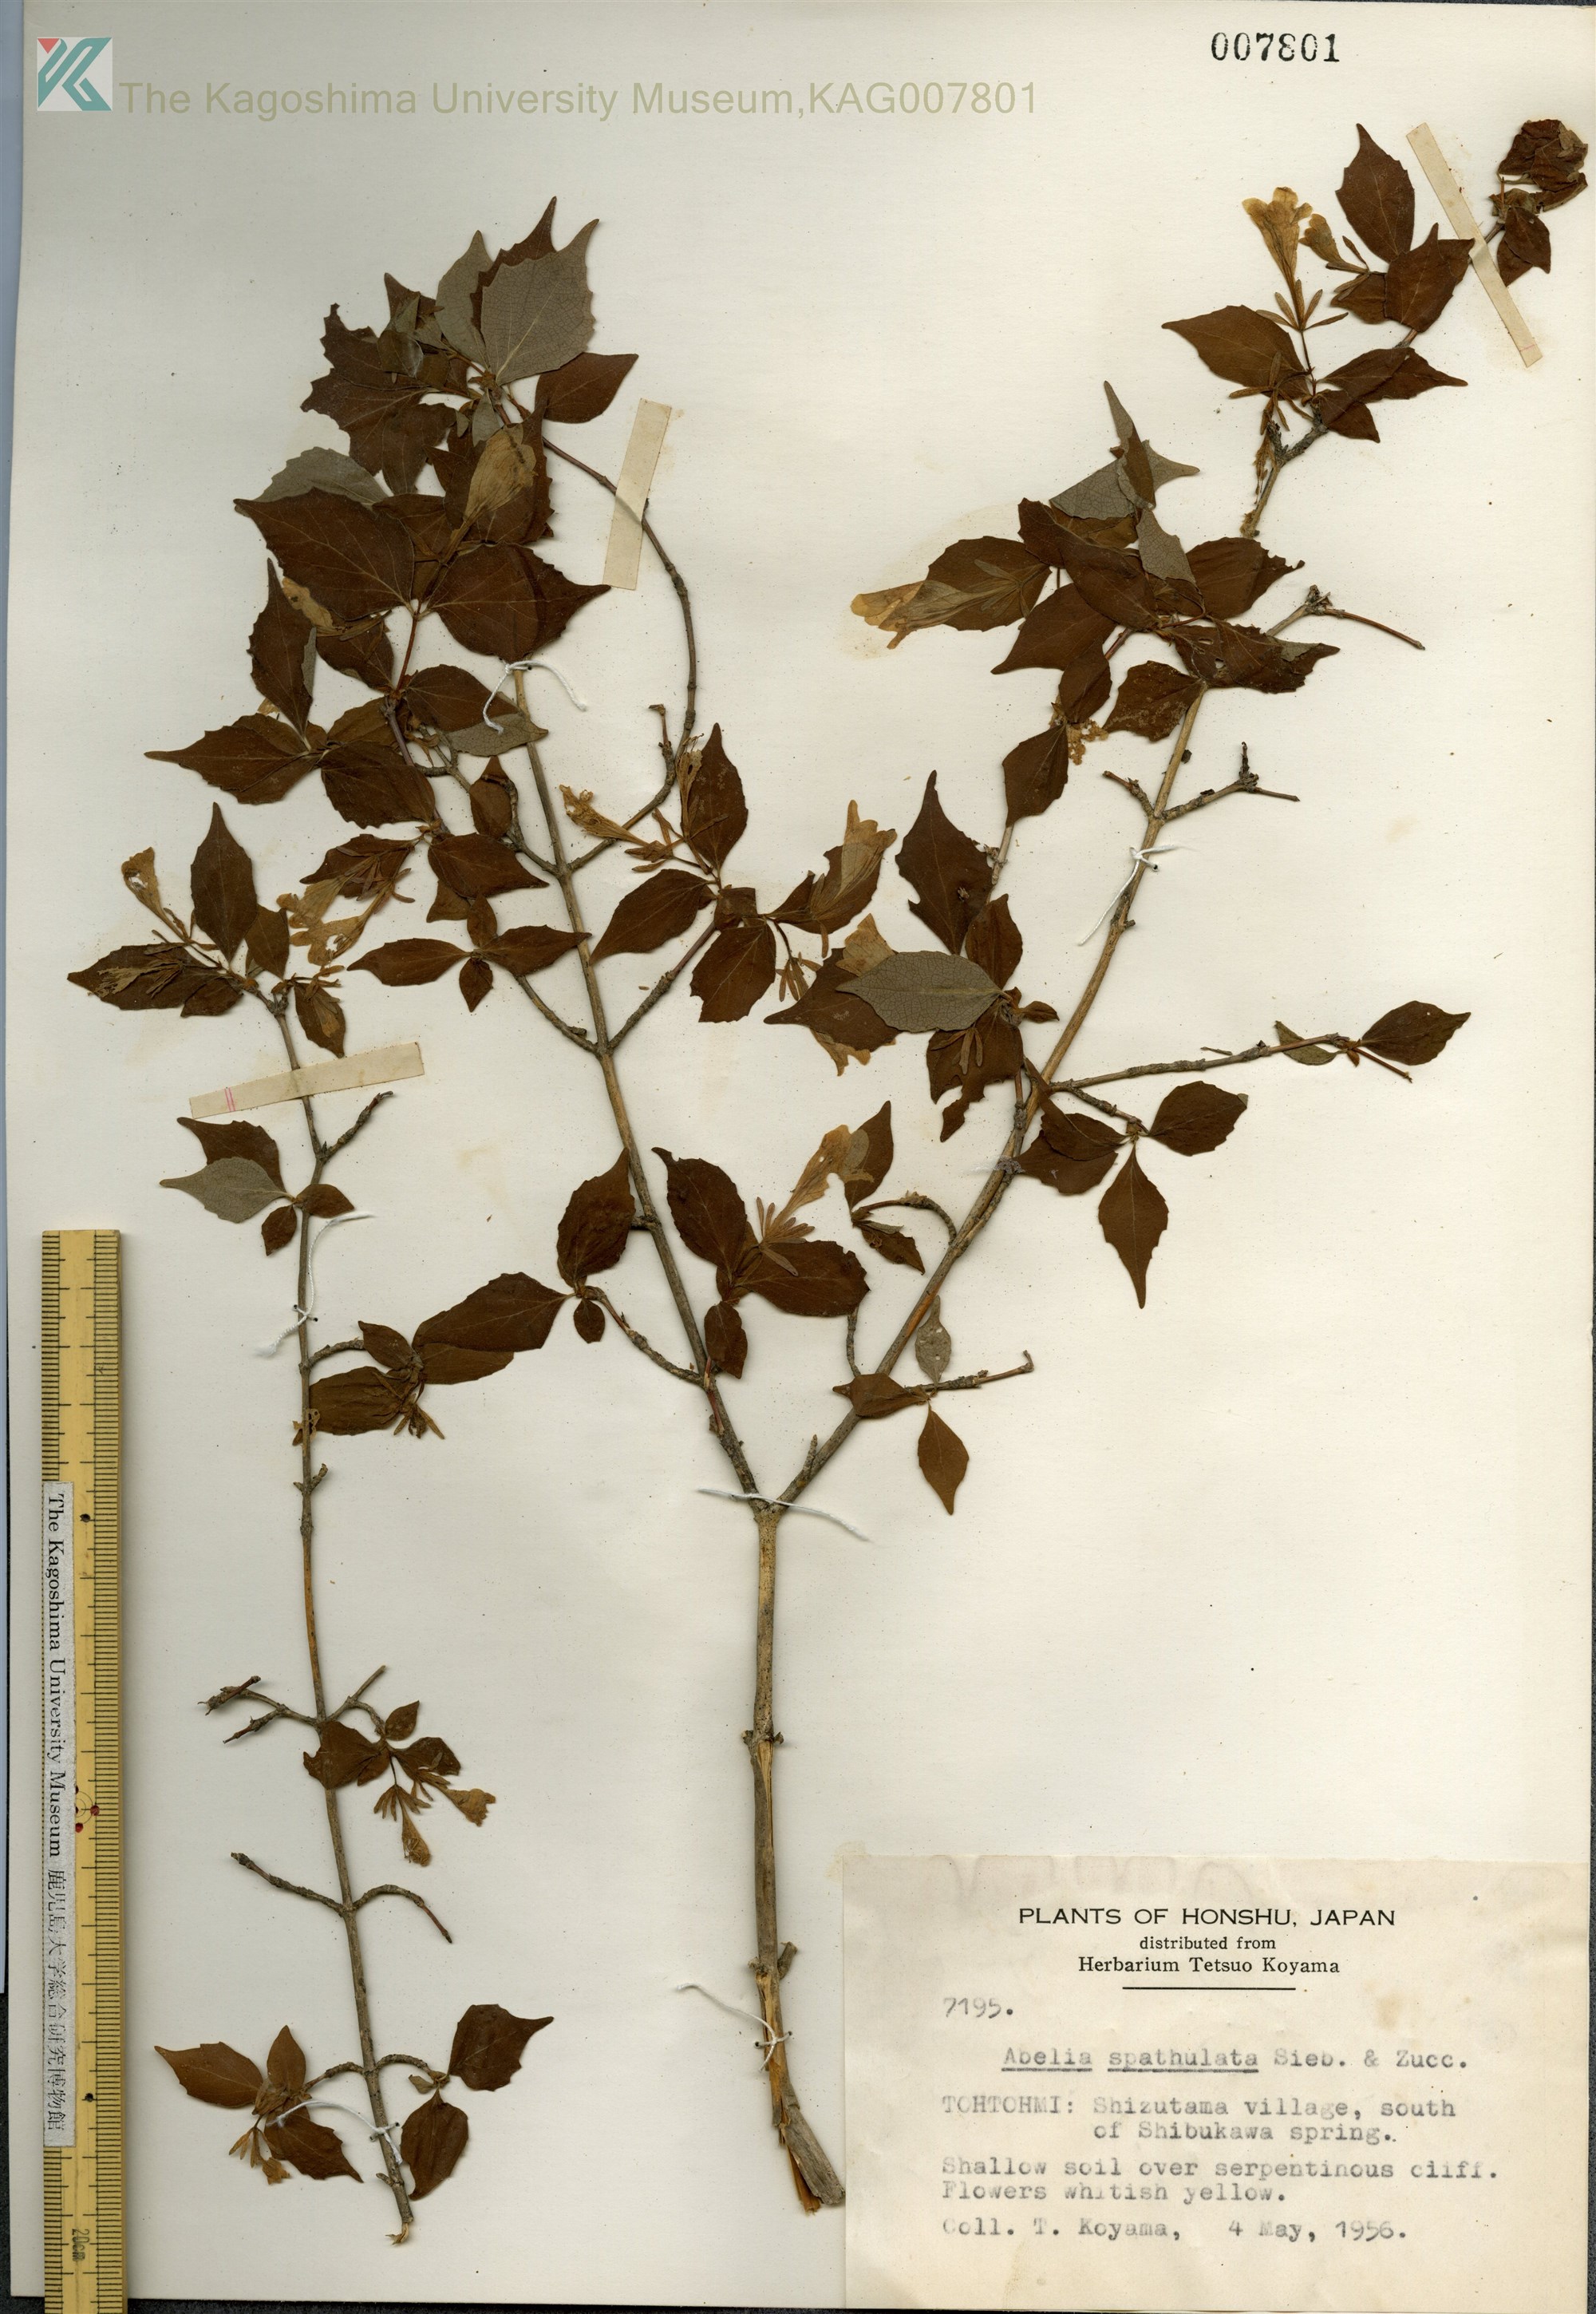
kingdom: Plantae
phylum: Tracheophyta
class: Magnoliopsida
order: Dipsacales
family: Caprifoliaceae
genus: Diabelia
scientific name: Diabelia spathulata
